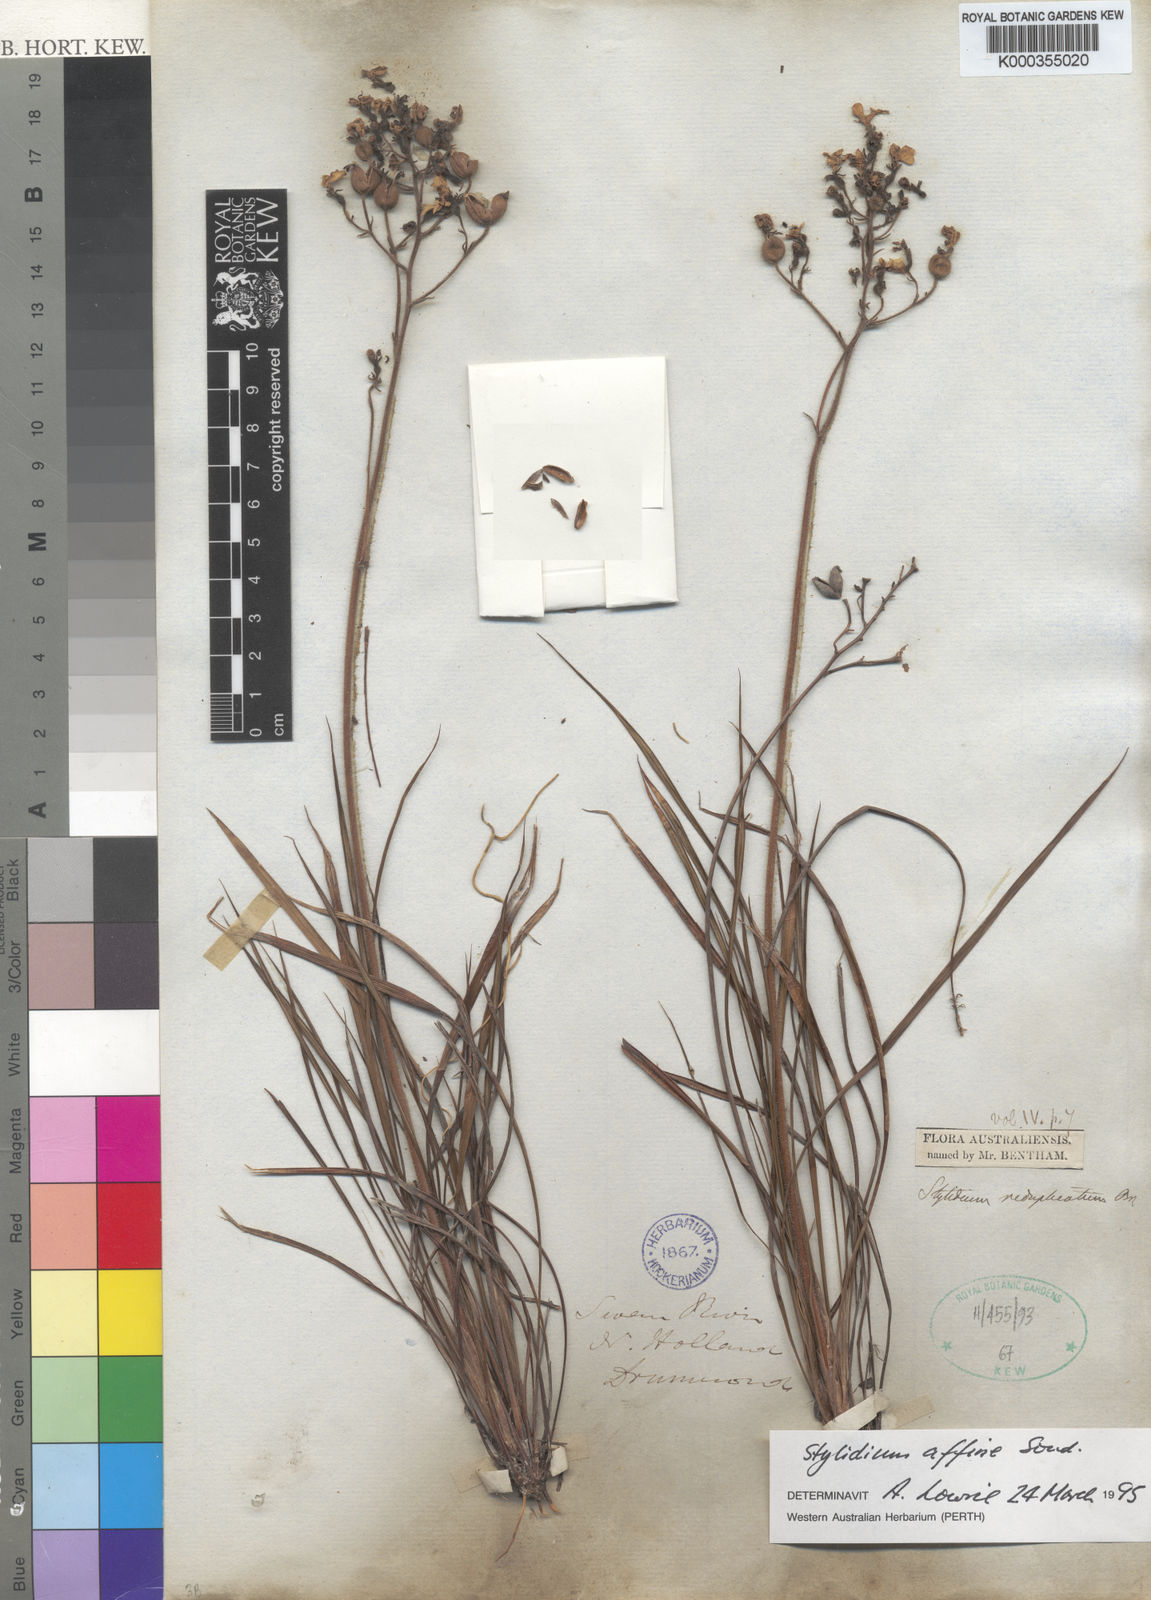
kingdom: Plantae
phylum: Tracheophyta
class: Magnoliopsida
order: Asterales
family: Stylidiaceae
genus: Stylidium
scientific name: Stylidium affine
